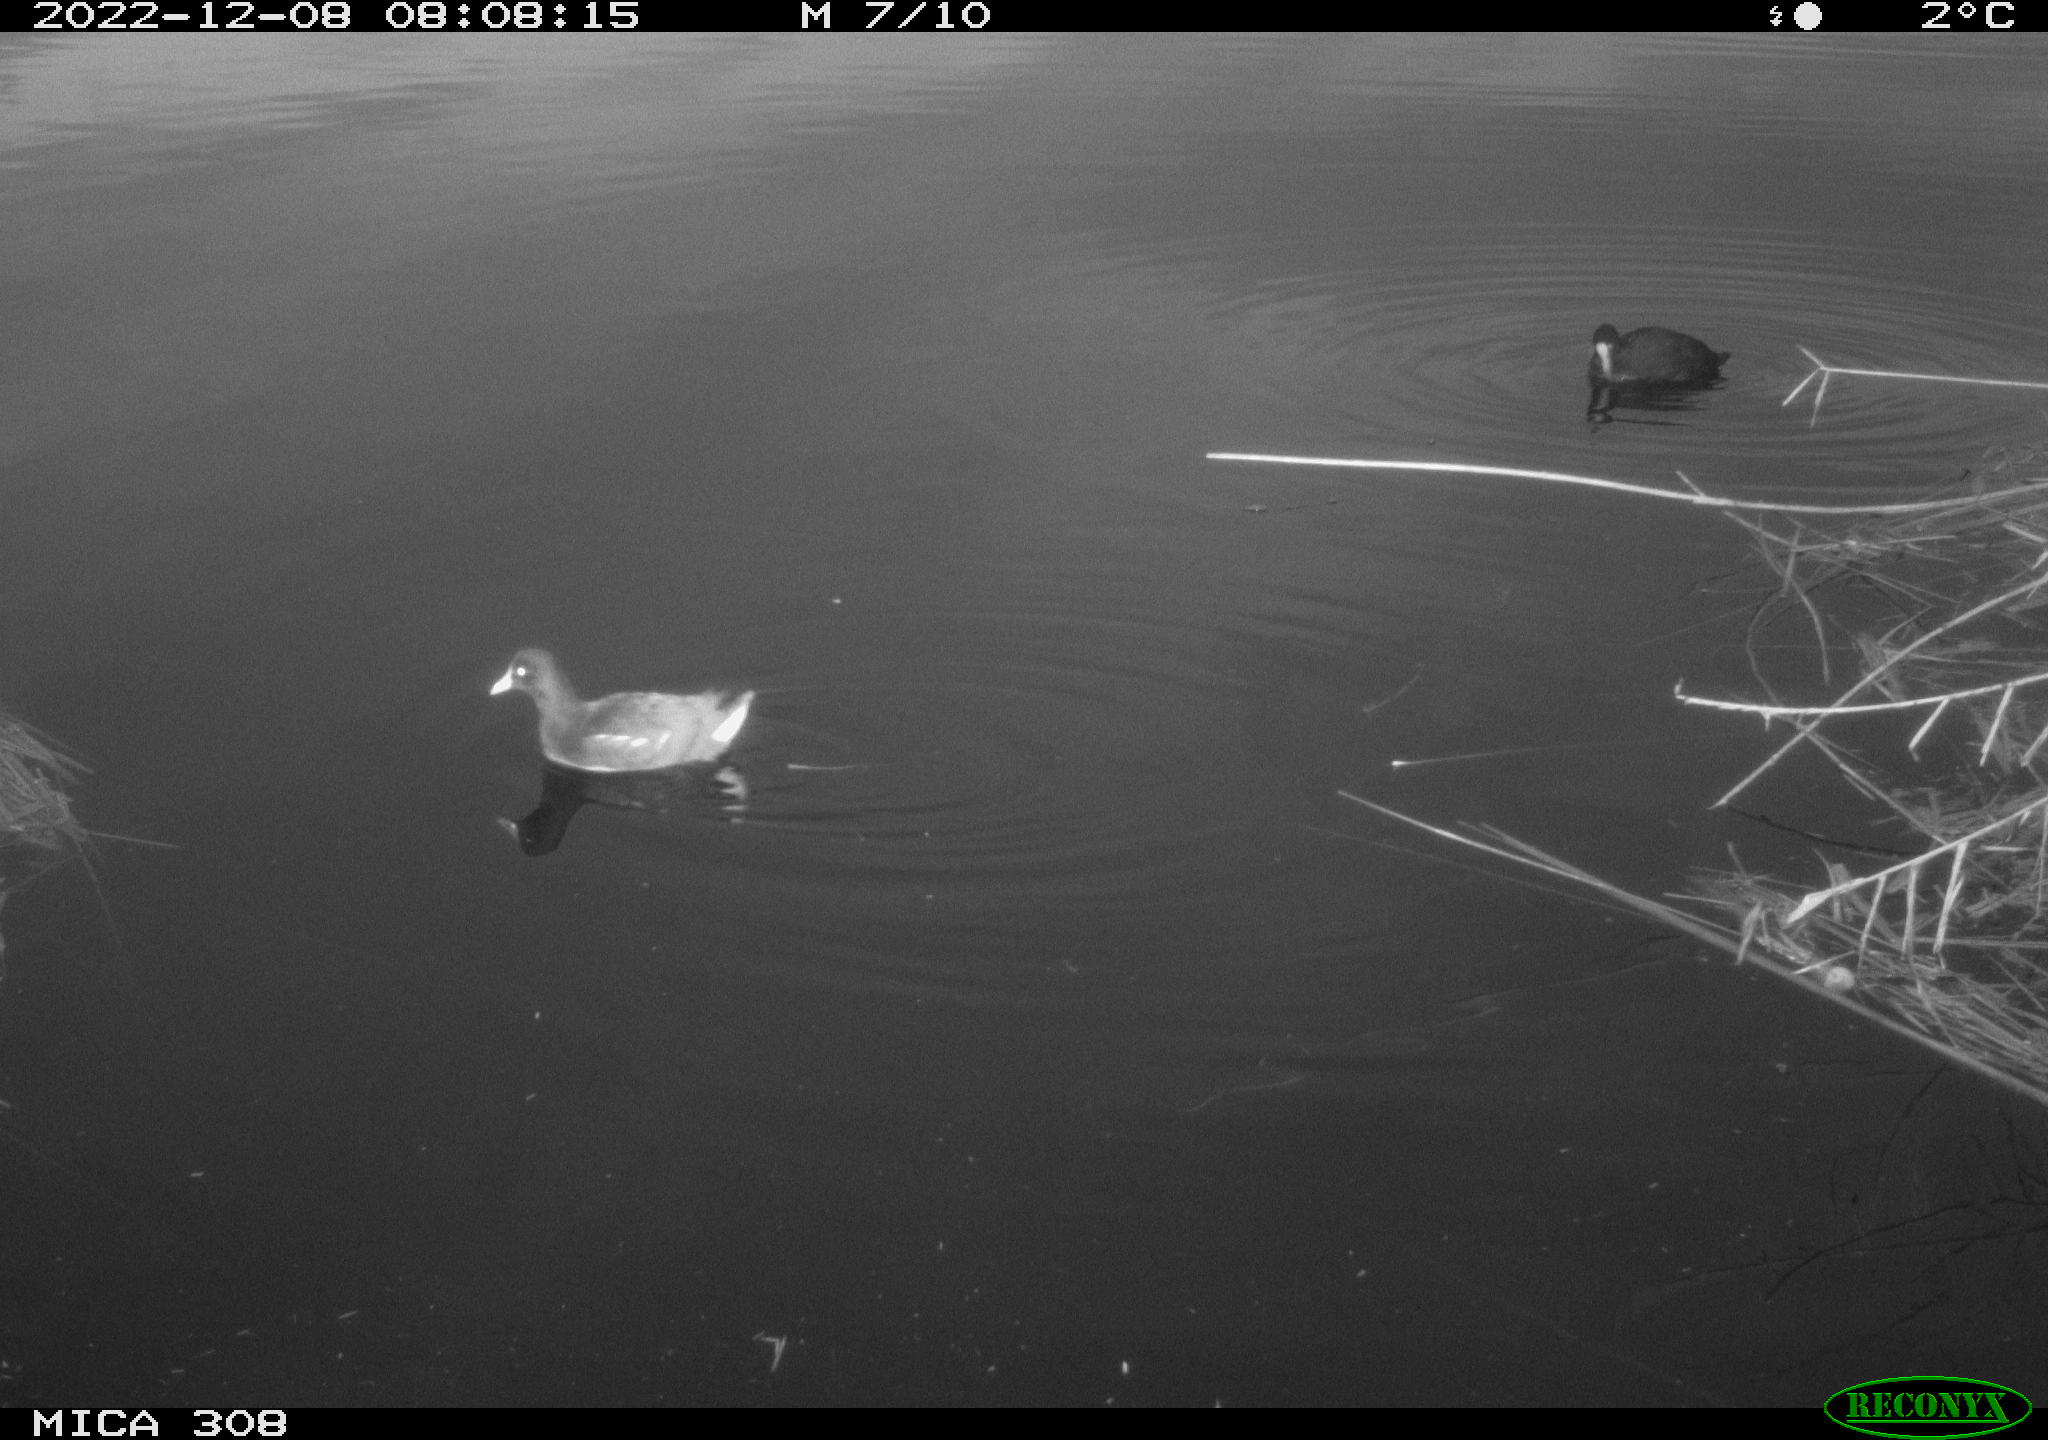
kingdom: Animalia
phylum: Chordata
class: Aves
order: Gruiformes
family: Rallidae
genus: Gallinula
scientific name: Gallinula chloropus
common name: Common moorhen
